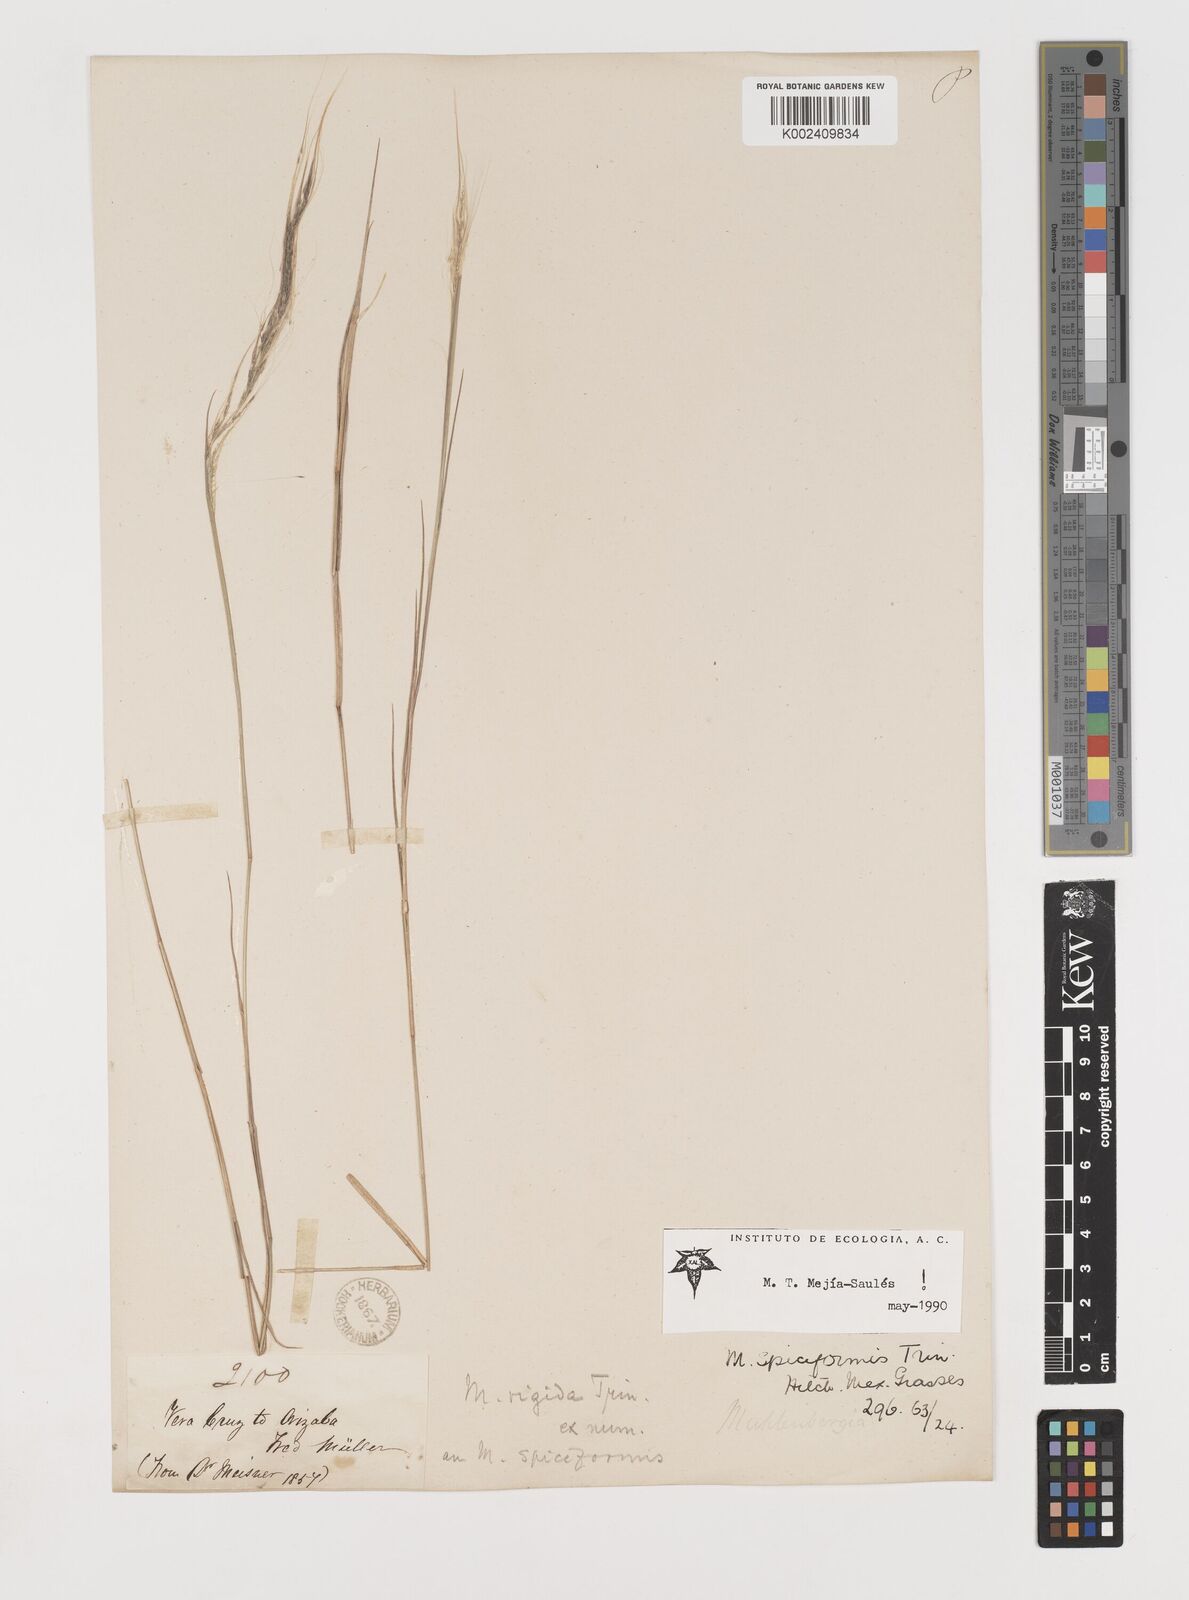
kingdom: Plantae
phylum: Tracheophyta
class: Liliopsida
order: Poales
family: Poaceae
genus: Muhlenbergia
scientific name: Muhlenbergia spiciformis
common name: Longawn muhly
